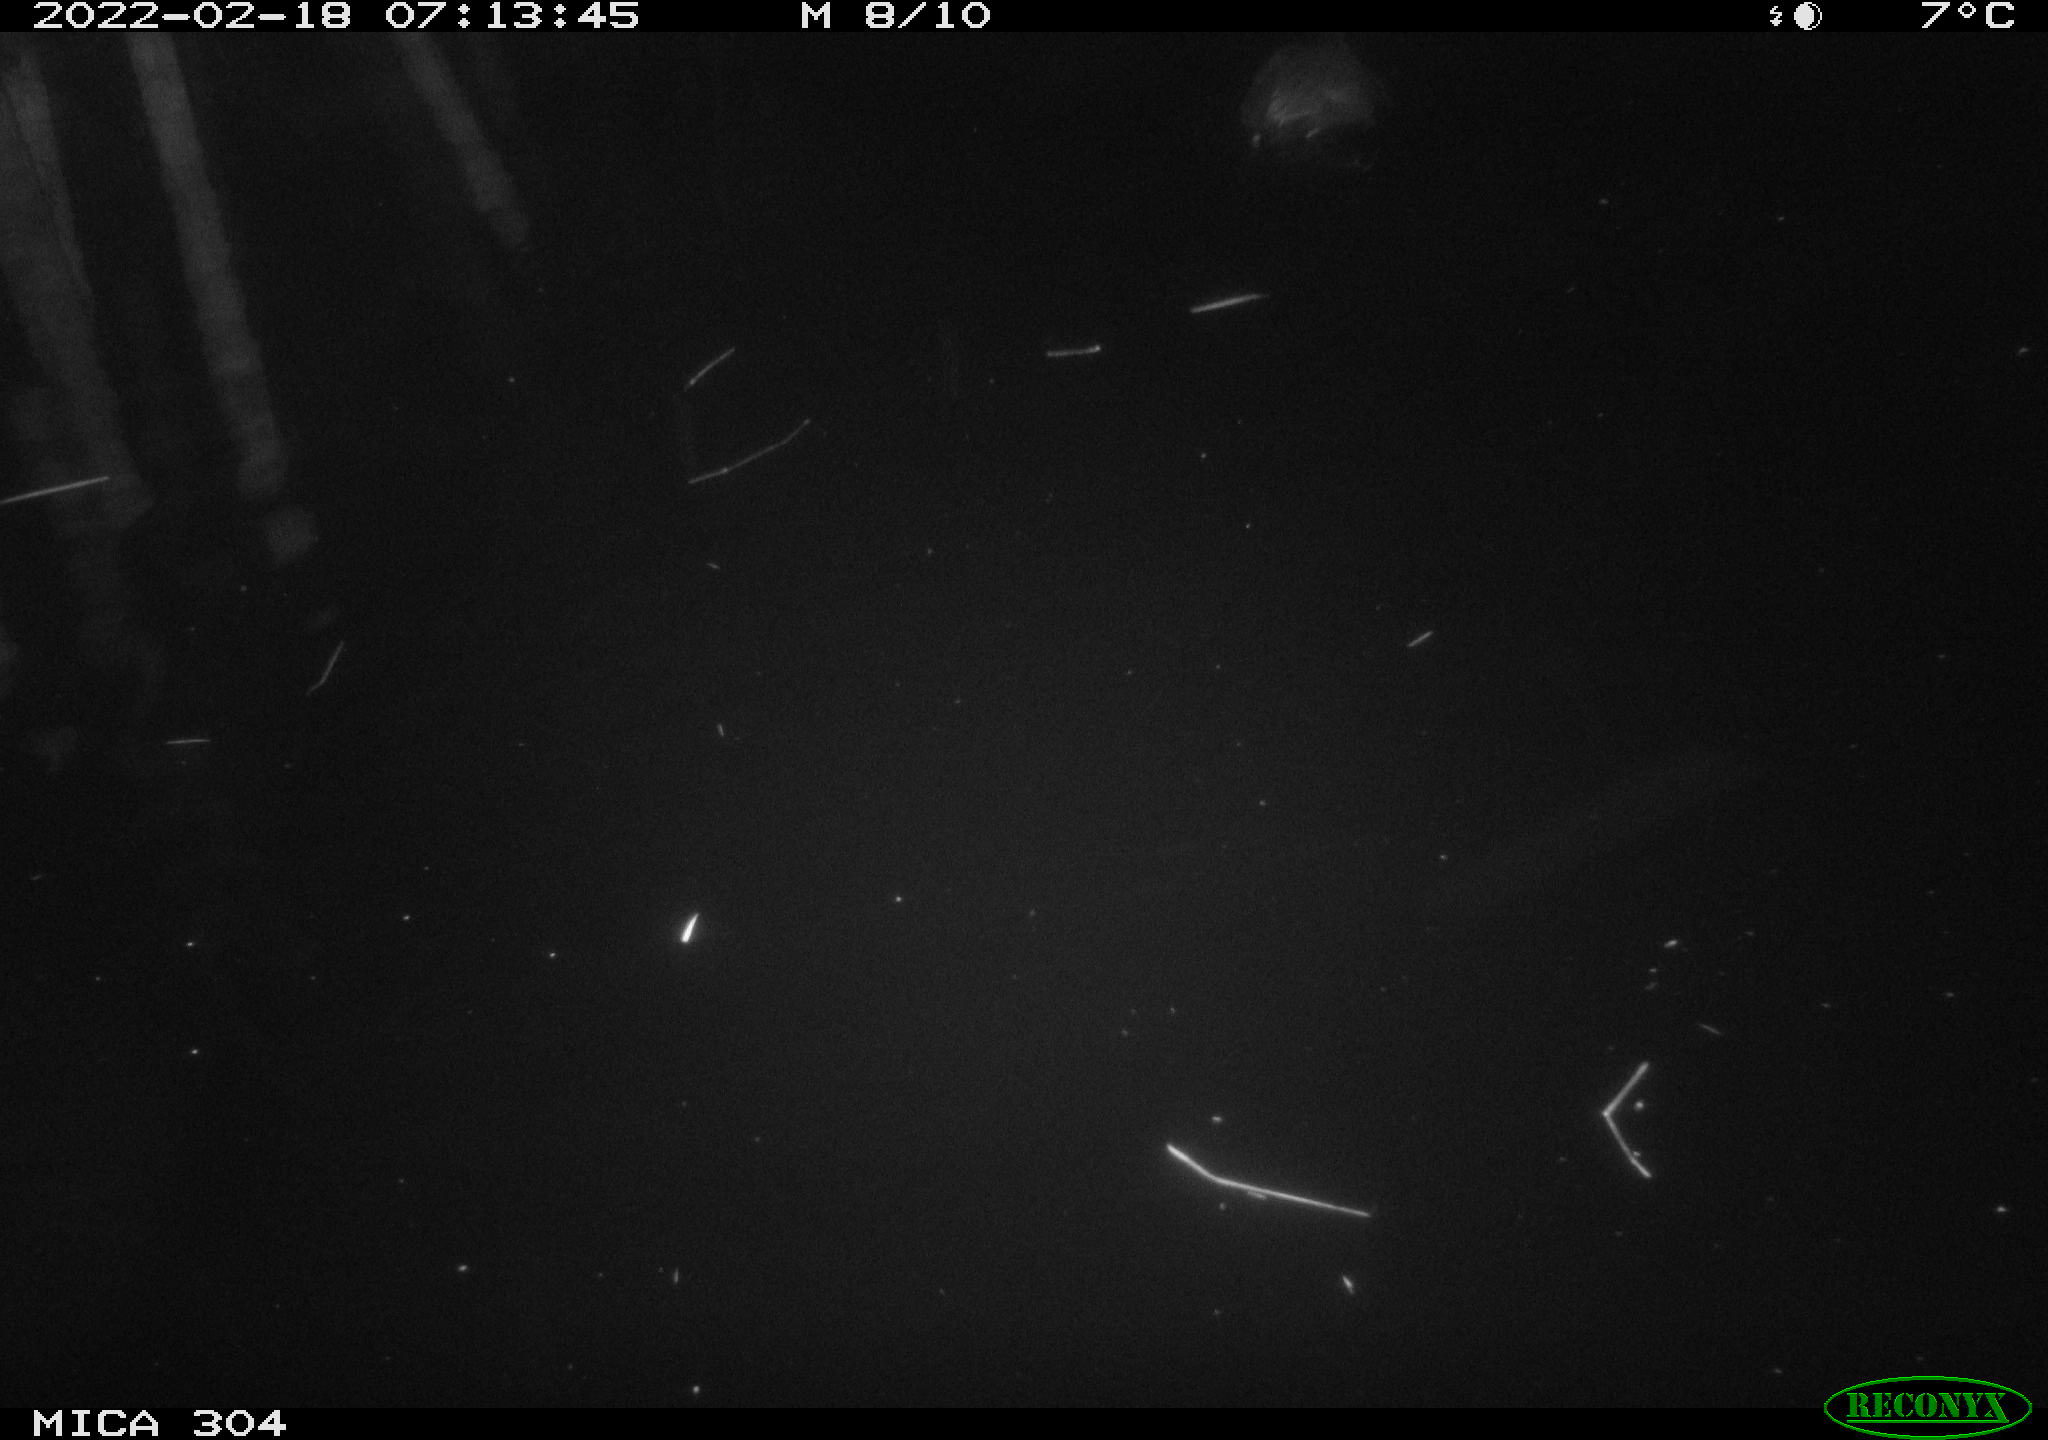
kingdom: Animalia
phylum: Chordata
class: Aves
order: Gruiformes
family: Rallidae
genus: Fulica
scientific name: Fulica atra
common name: Eurasian coot
